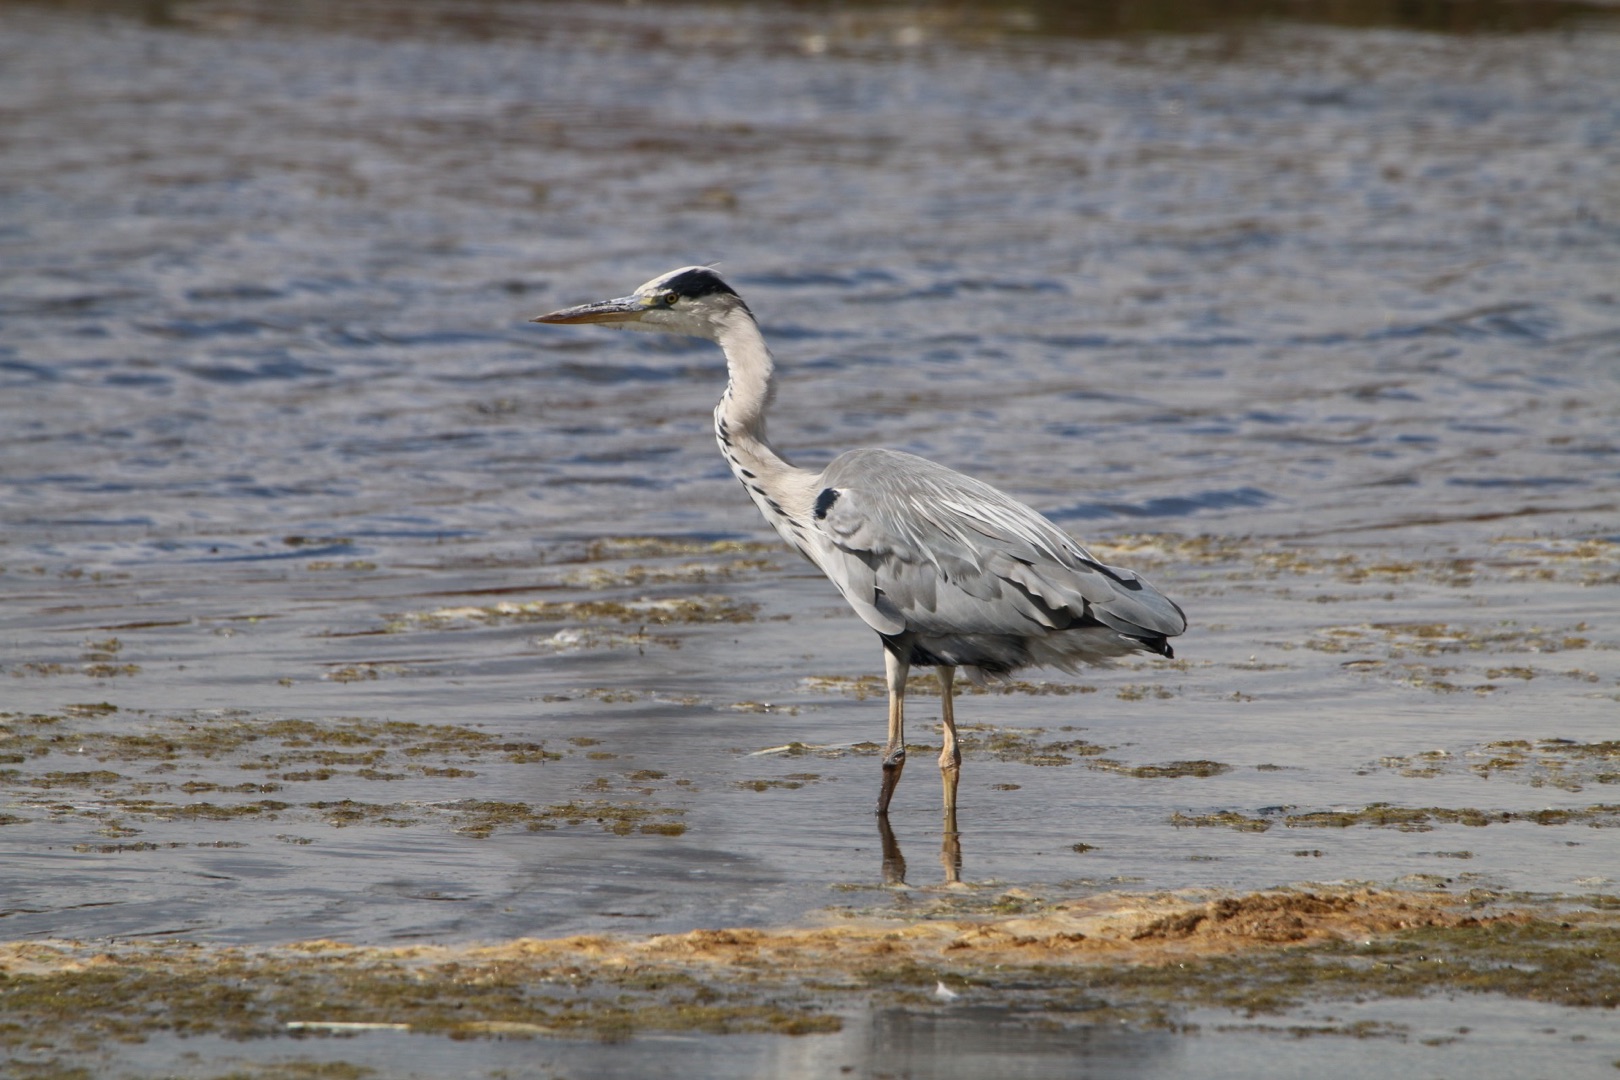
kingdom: Animalia
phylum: Chordata
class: Aves
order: Pelecaniformes
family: Ardeidae
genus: Ardea
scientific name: Ardea cinerea
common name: Fiskehejre
